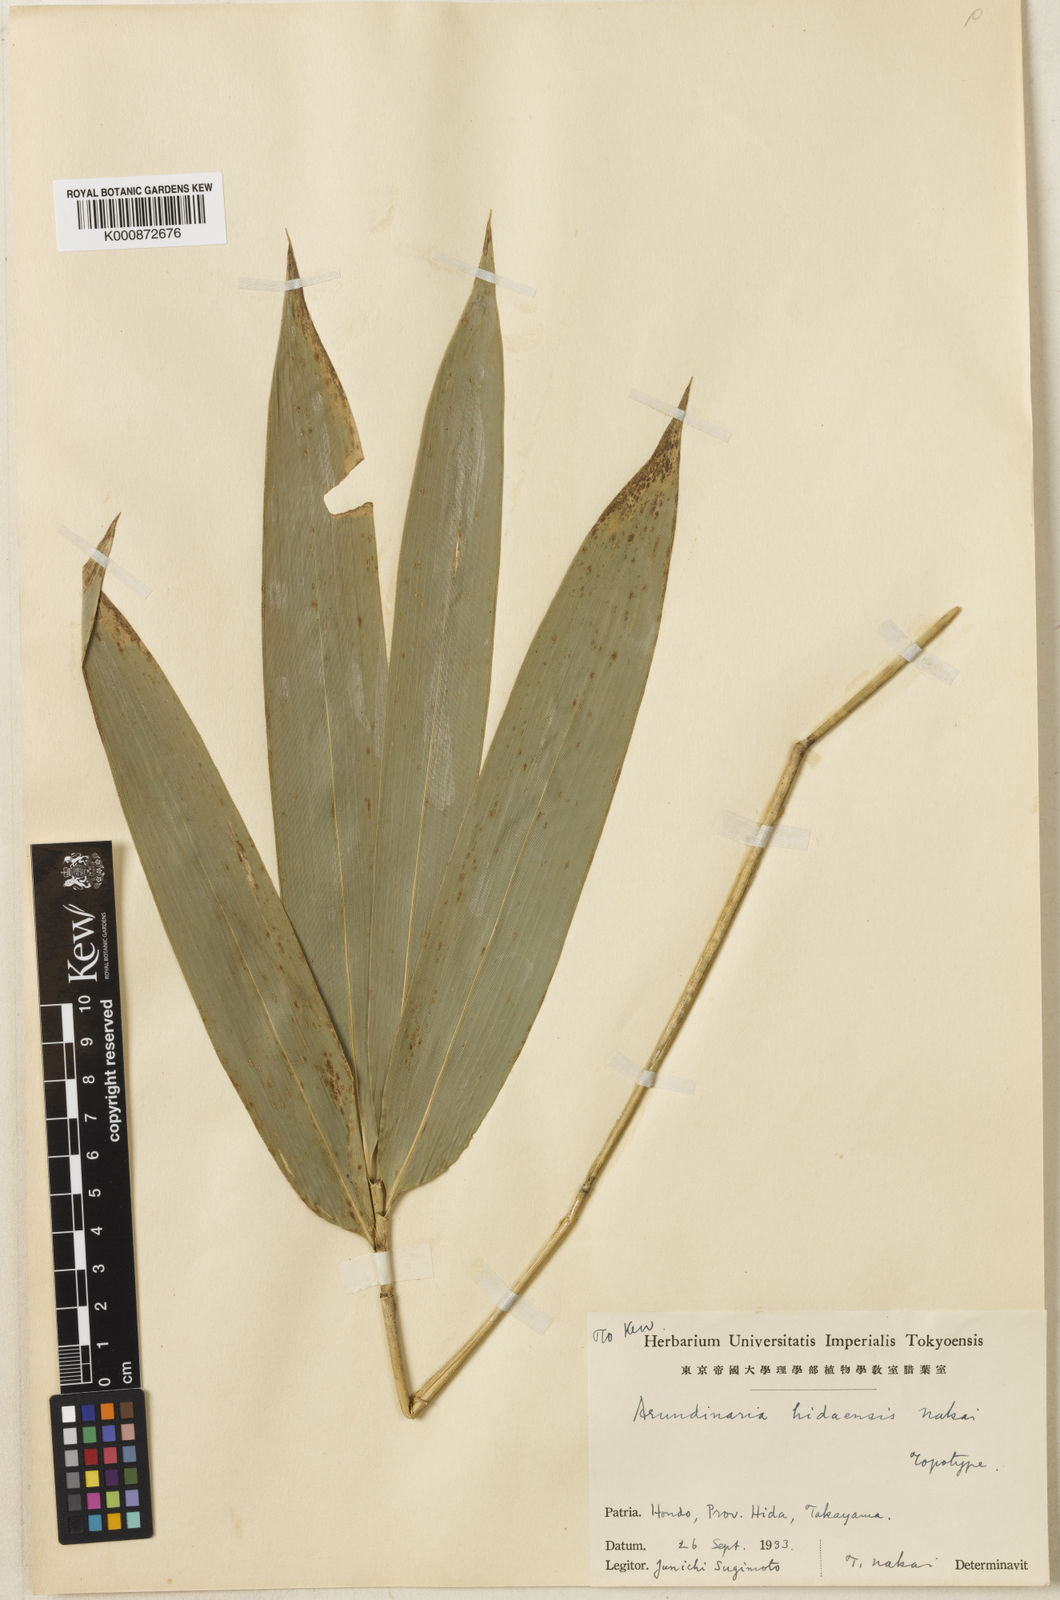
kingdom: Plantae
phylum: Tracheophyta
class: Liliopsida
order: Poales
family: Poaceae
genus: Sasaella
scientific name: Sasaella hidaensis
